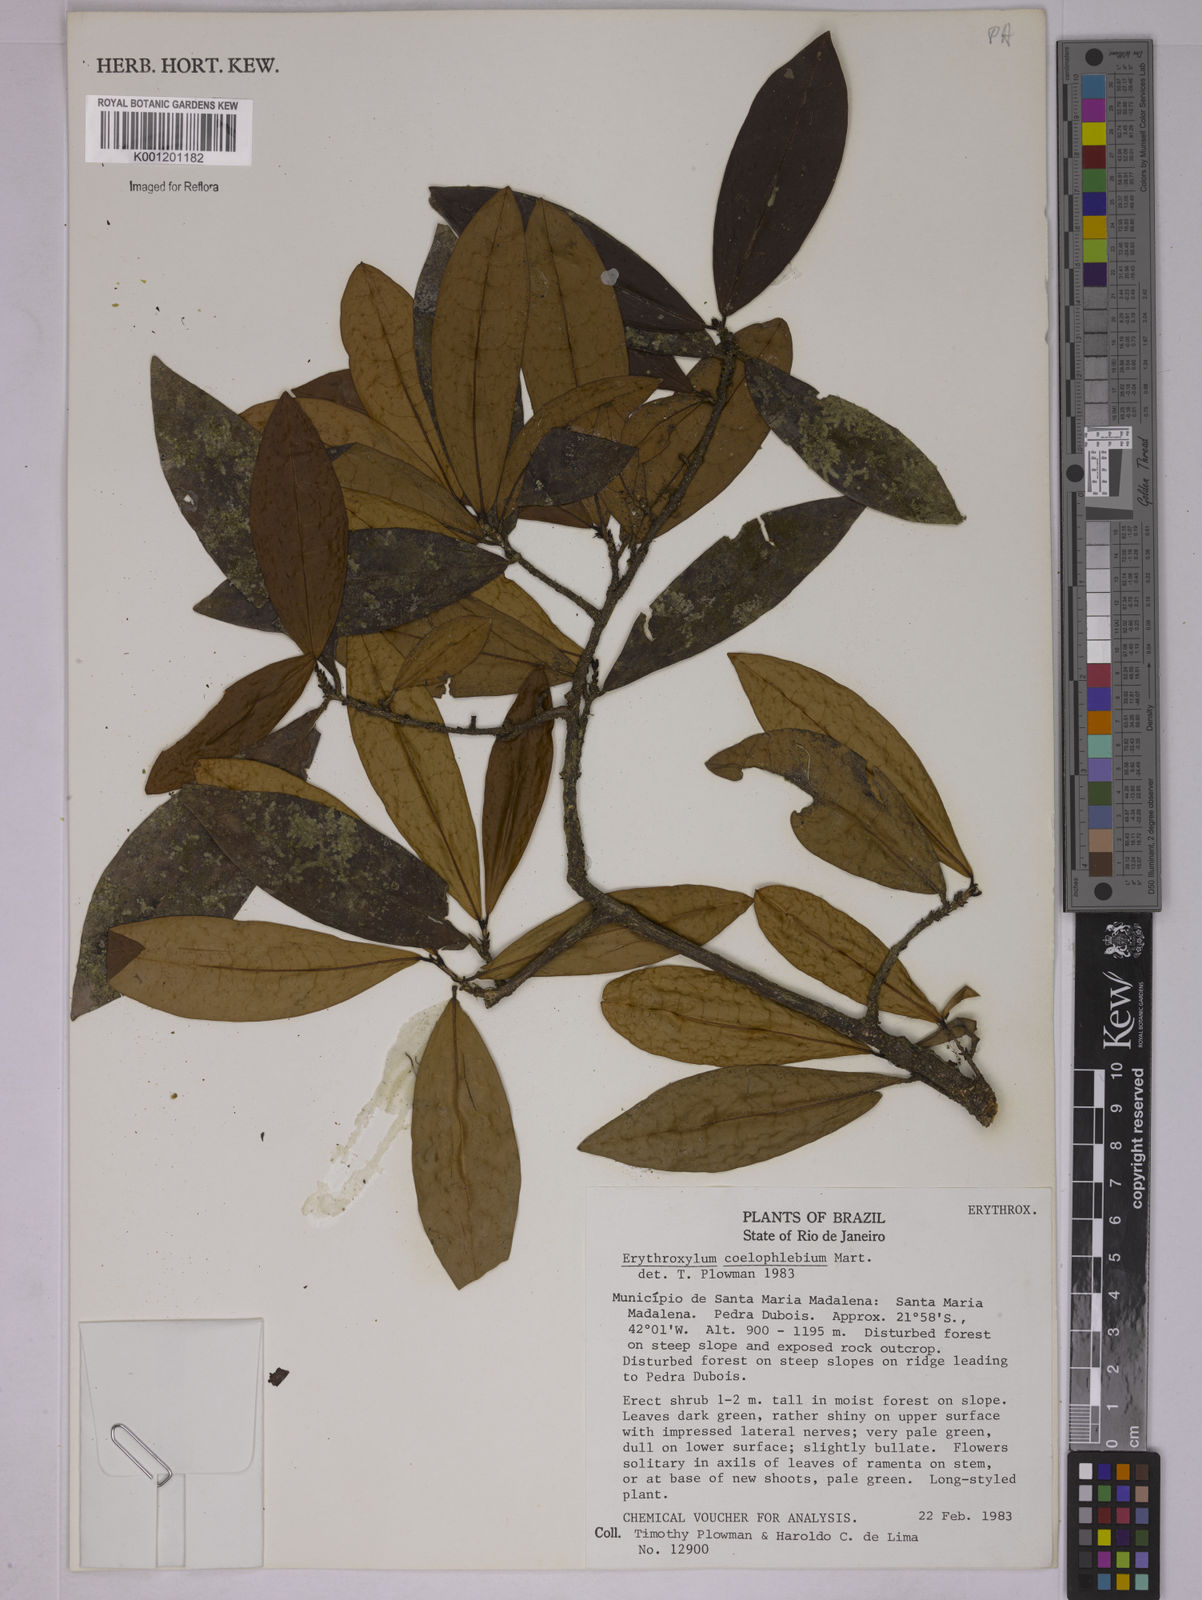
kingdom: Plantae
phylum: Tracheophyta
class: Magnoliopsida
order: Malpighiales
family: Erythroxylaceae
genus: Erythroxylum
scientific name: Erythroxylum coelophlebium
